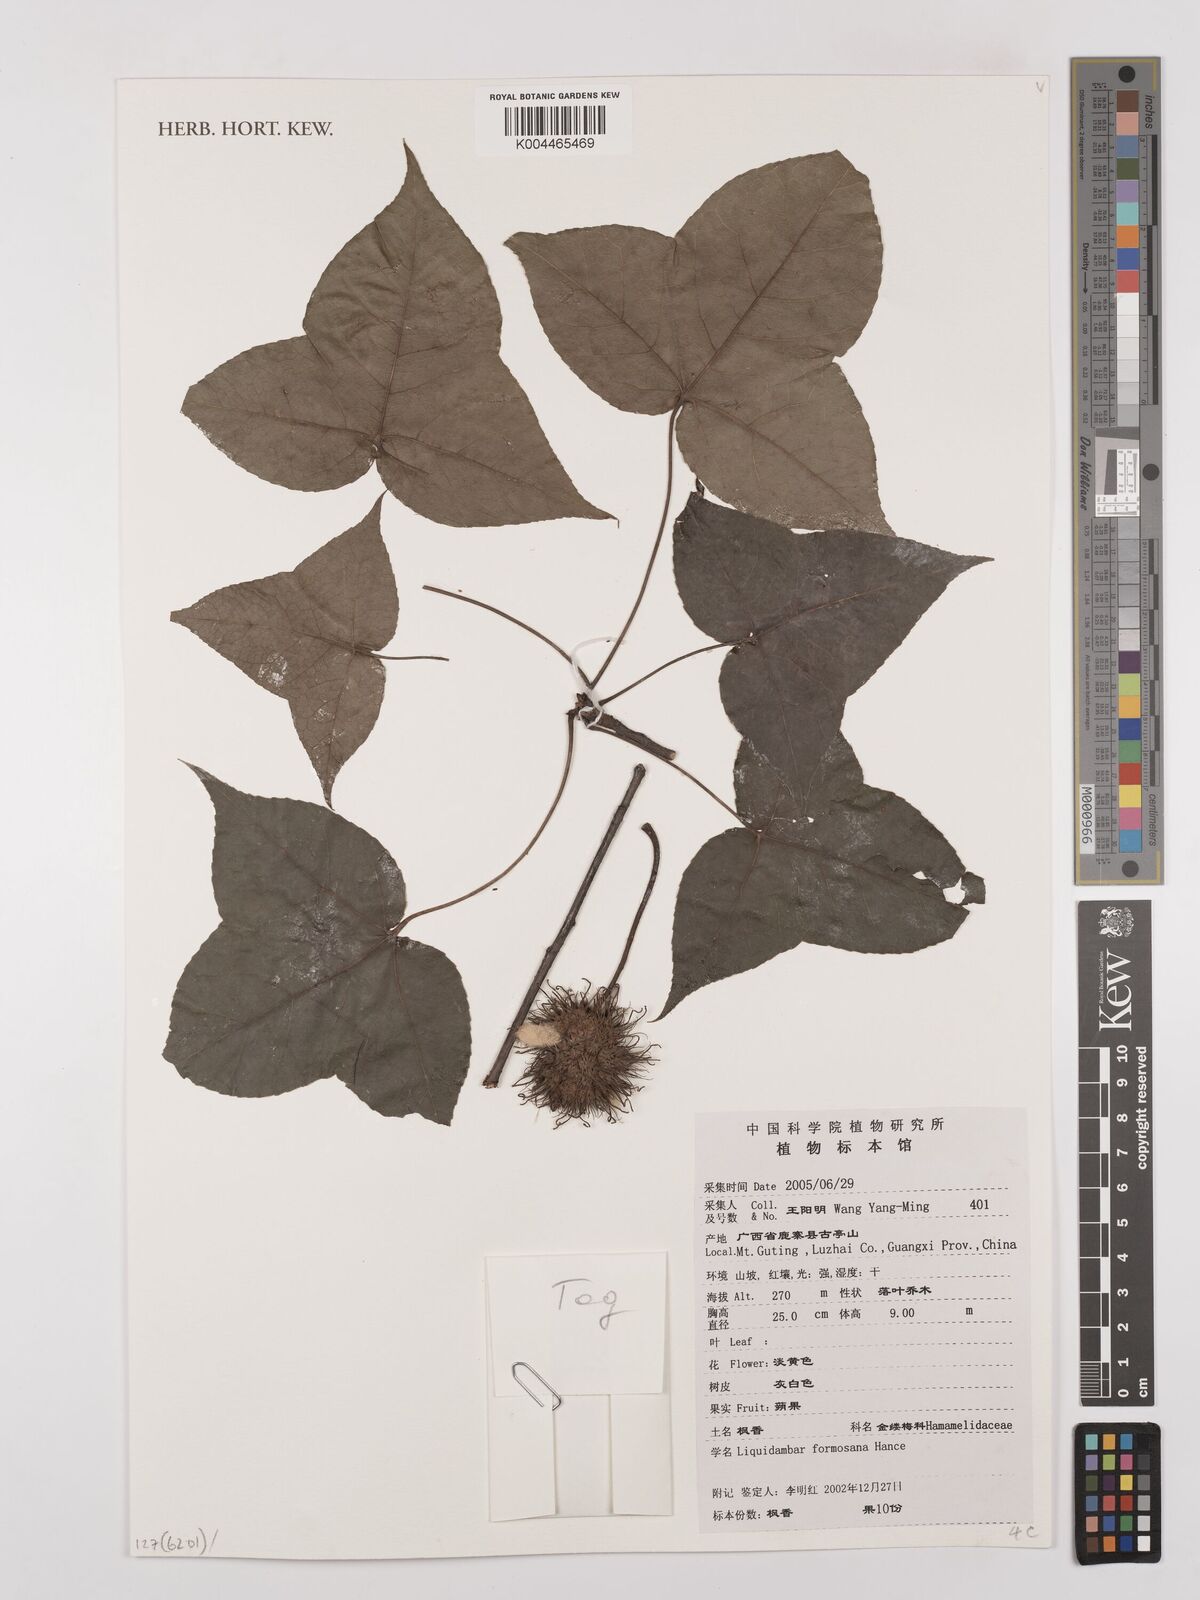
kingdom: Plantae
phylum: Tracheophyta
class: Magnoliopsida
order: Saxifragales
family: Altingiaceae
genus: Liquidambar
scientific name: Liquidambar formosana
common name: Chinese sweet gum
